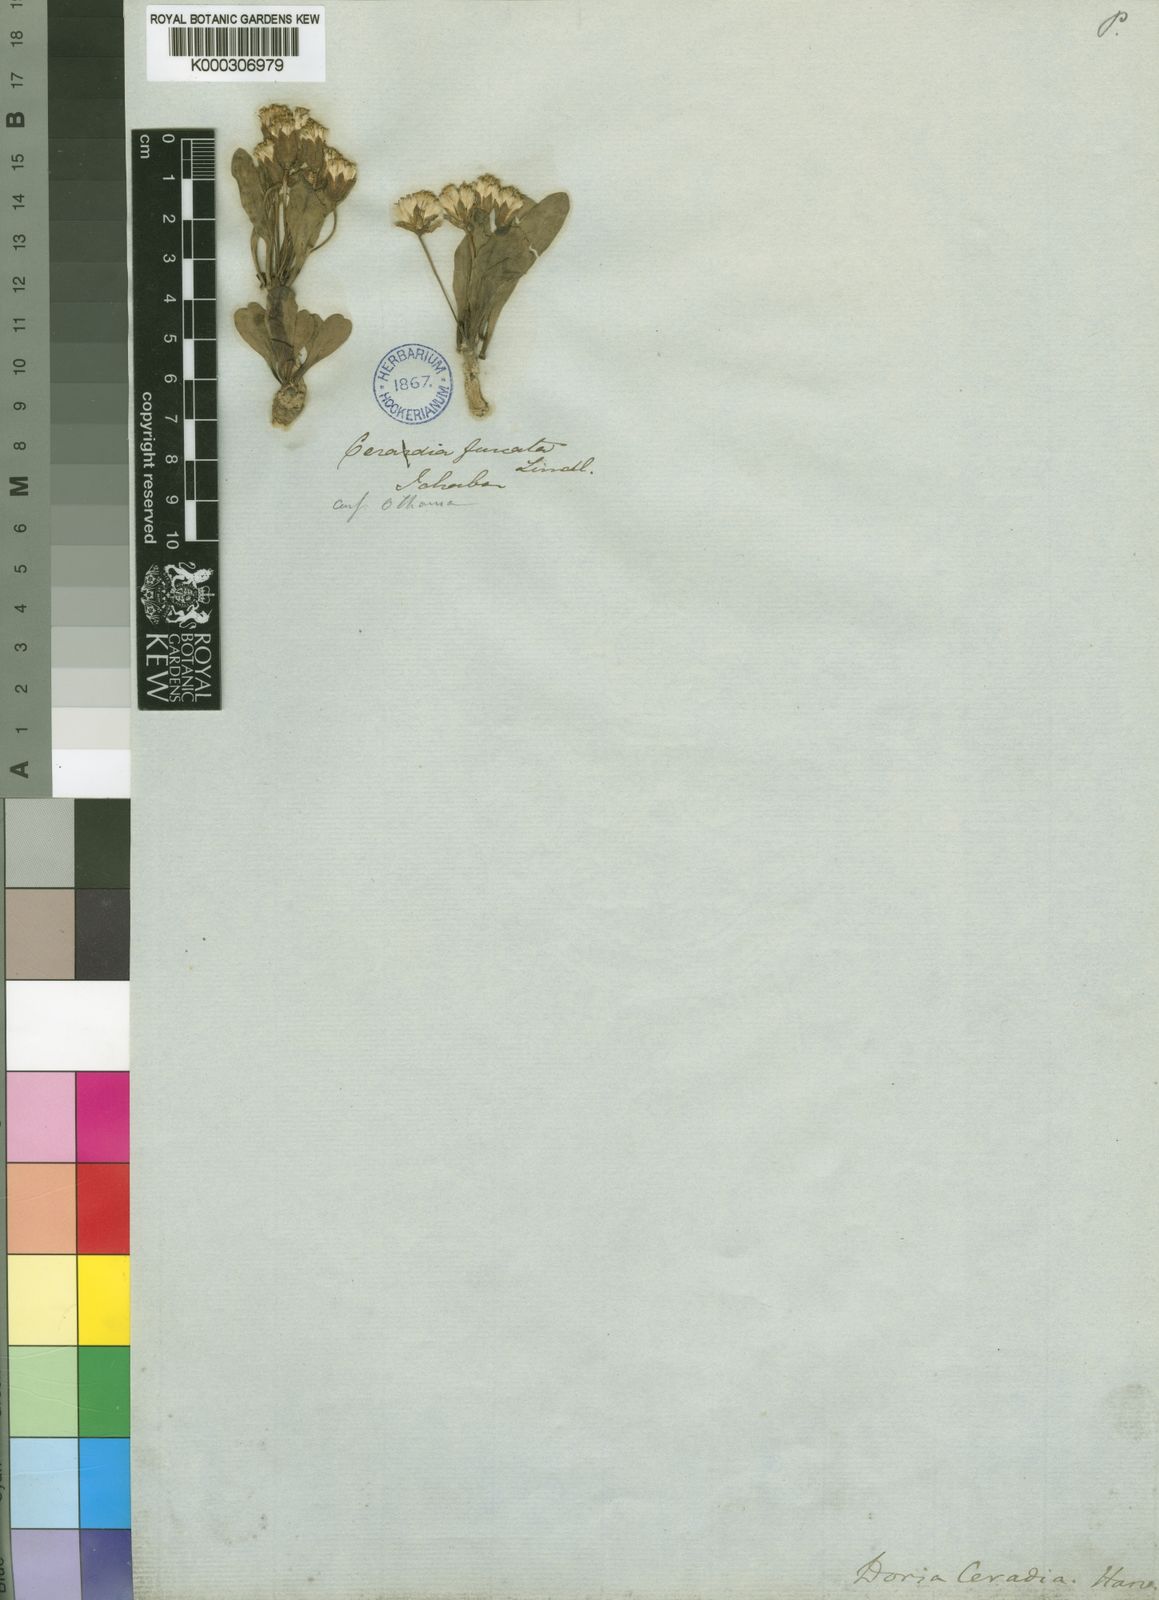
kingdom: Plantae
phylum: Tracheophyta
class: Magnoliopsida
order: Asterales
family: Asteraceae
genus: Othonna
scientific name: Othonna
